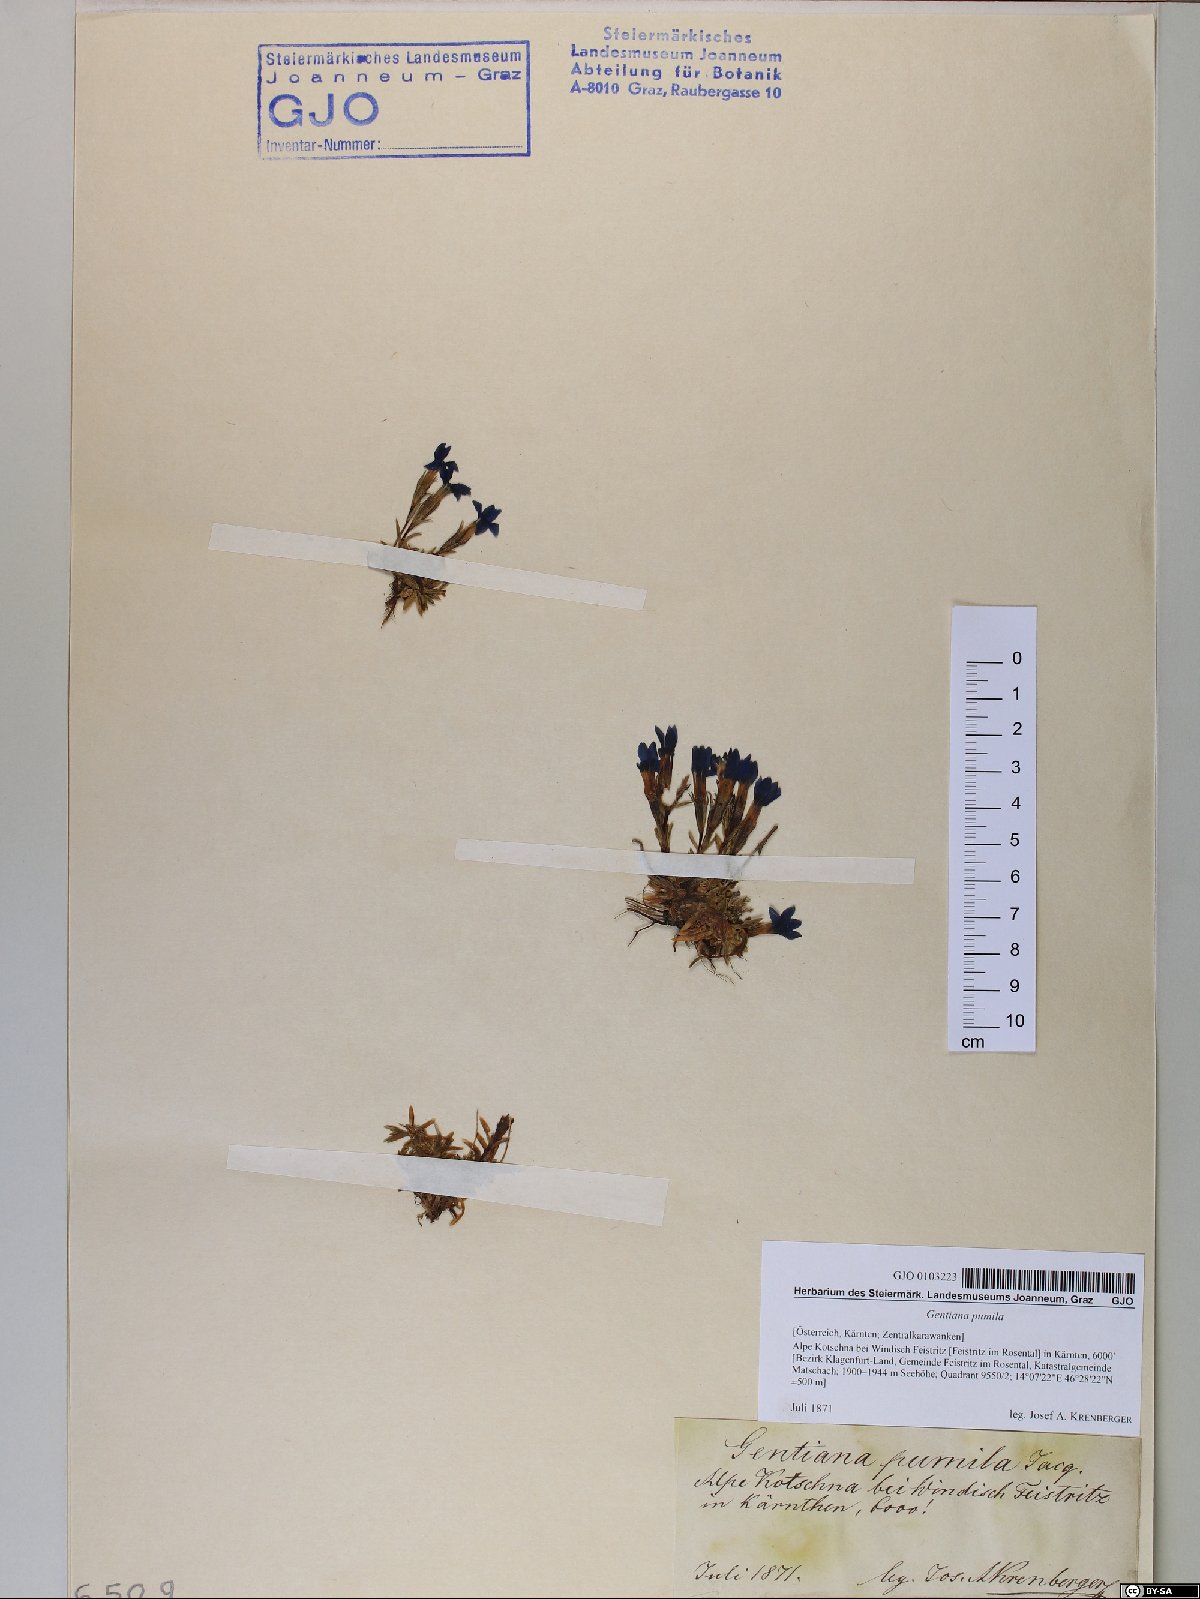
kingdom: Plantae
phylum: Tracheophyta
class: Magnoliopsida
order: Gentianales
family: Gentianaceae
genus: Gentiana
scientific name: Gentiana pumila
